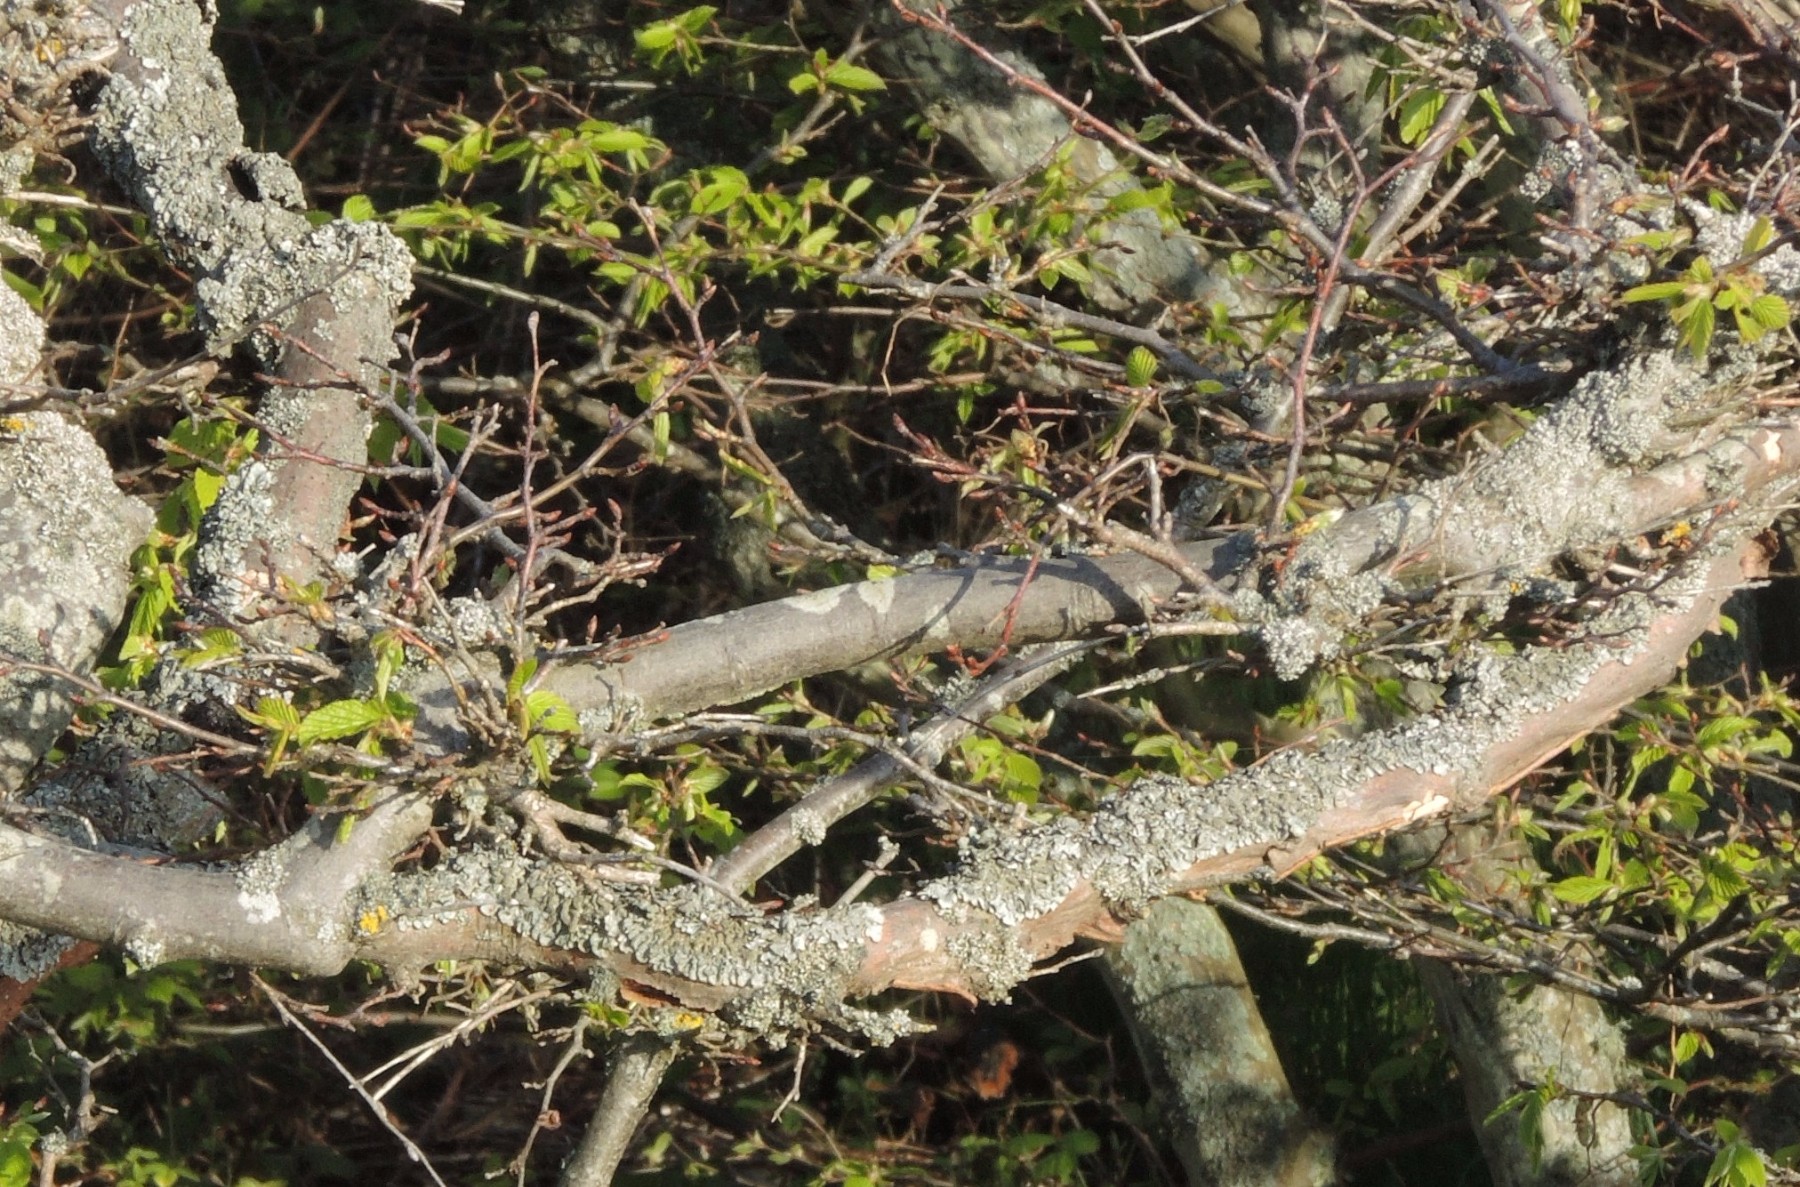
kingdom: Fungi
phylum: Ascomycota
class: Taphrinomycetes
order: Taphrinales
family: Taphrinaceae
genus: Taphrina
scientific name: Taphrina carpini
